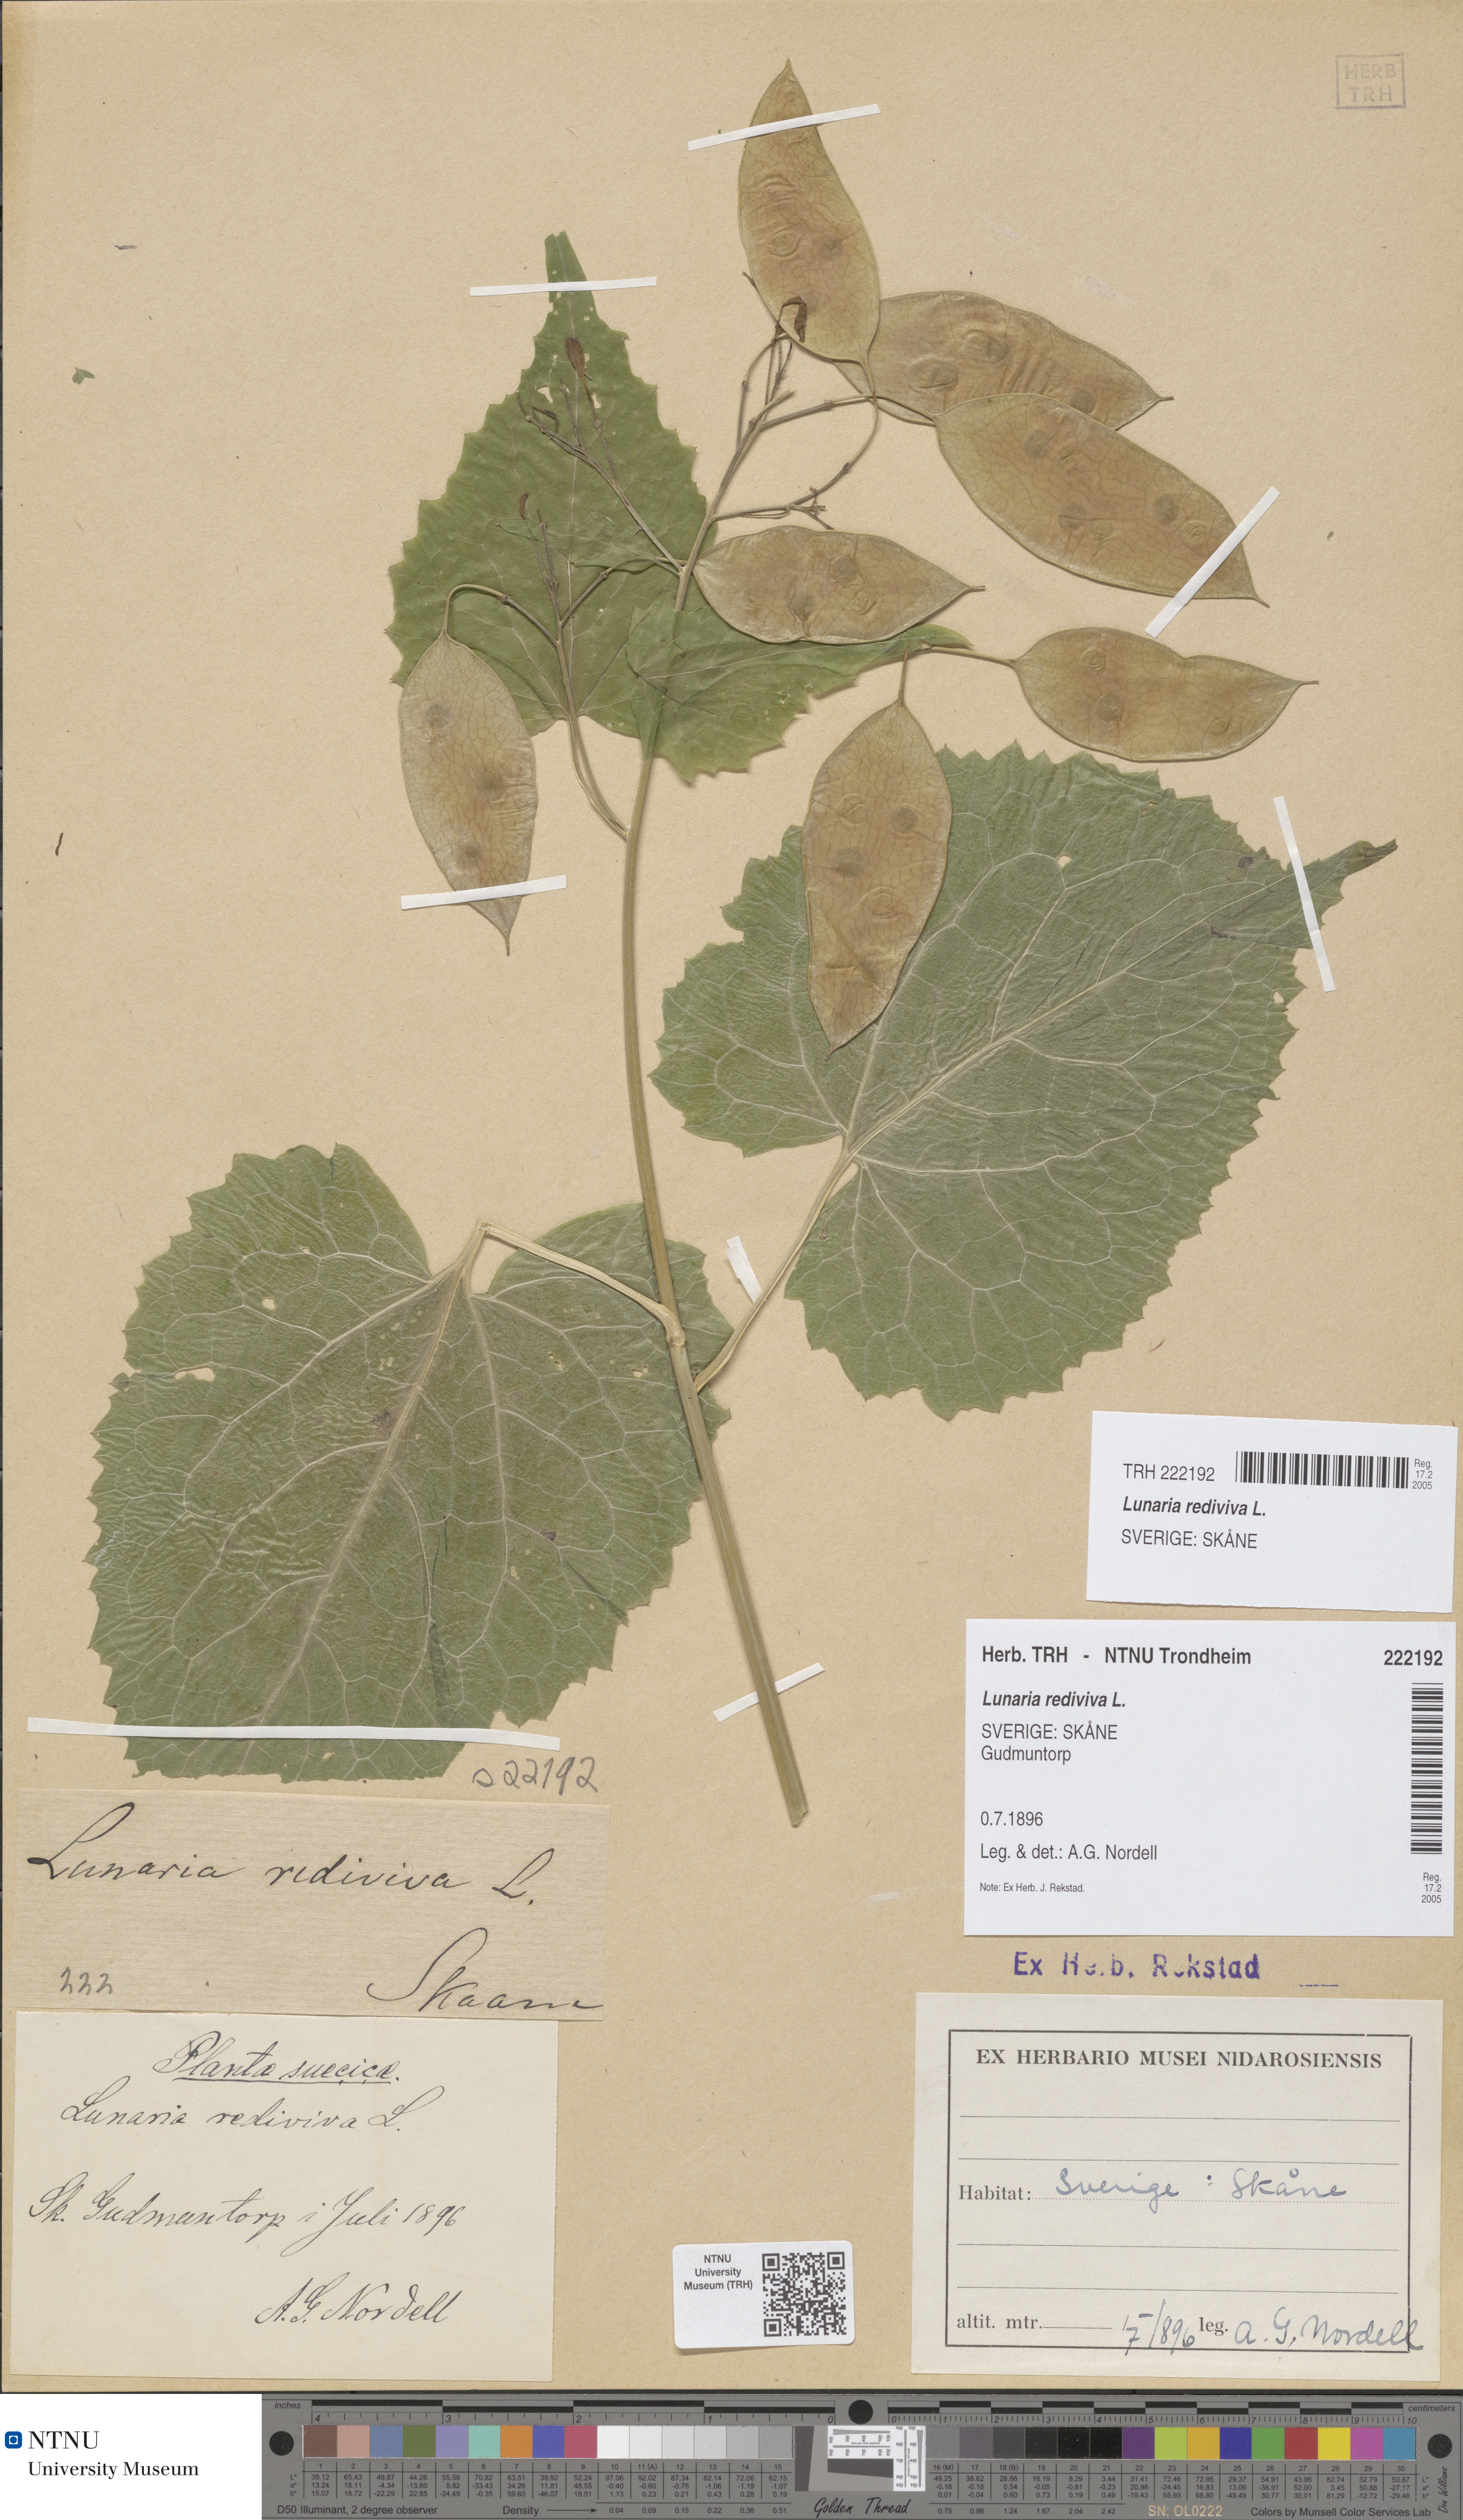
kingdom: Plantae
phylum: Tracheophyta
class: Magnoliopsida
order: Brassicales
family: Brassicaceae
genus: Lunaria
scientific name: Lunaria rediviva
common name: Perennial honesty
